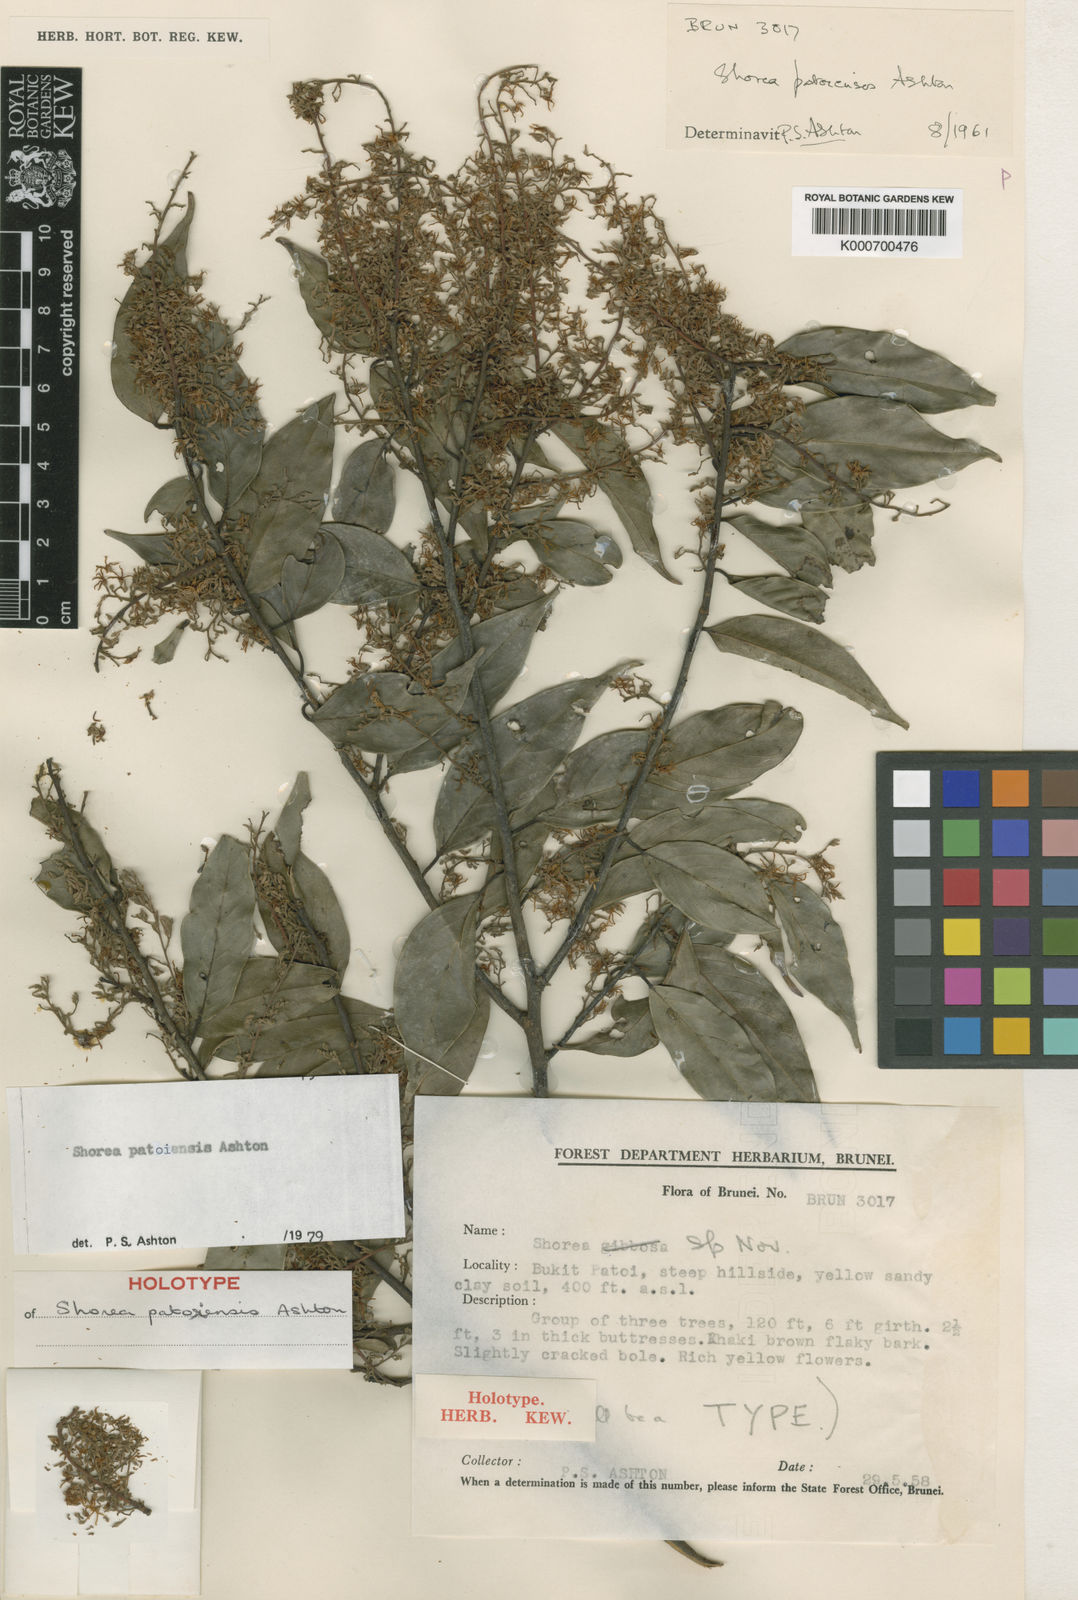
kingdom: Plantae
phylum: Tracheophyta
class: Magnoliopsida
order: Malvales
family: Dipterocarpaceae
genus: Shorea
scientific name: Shorea patoiensis
